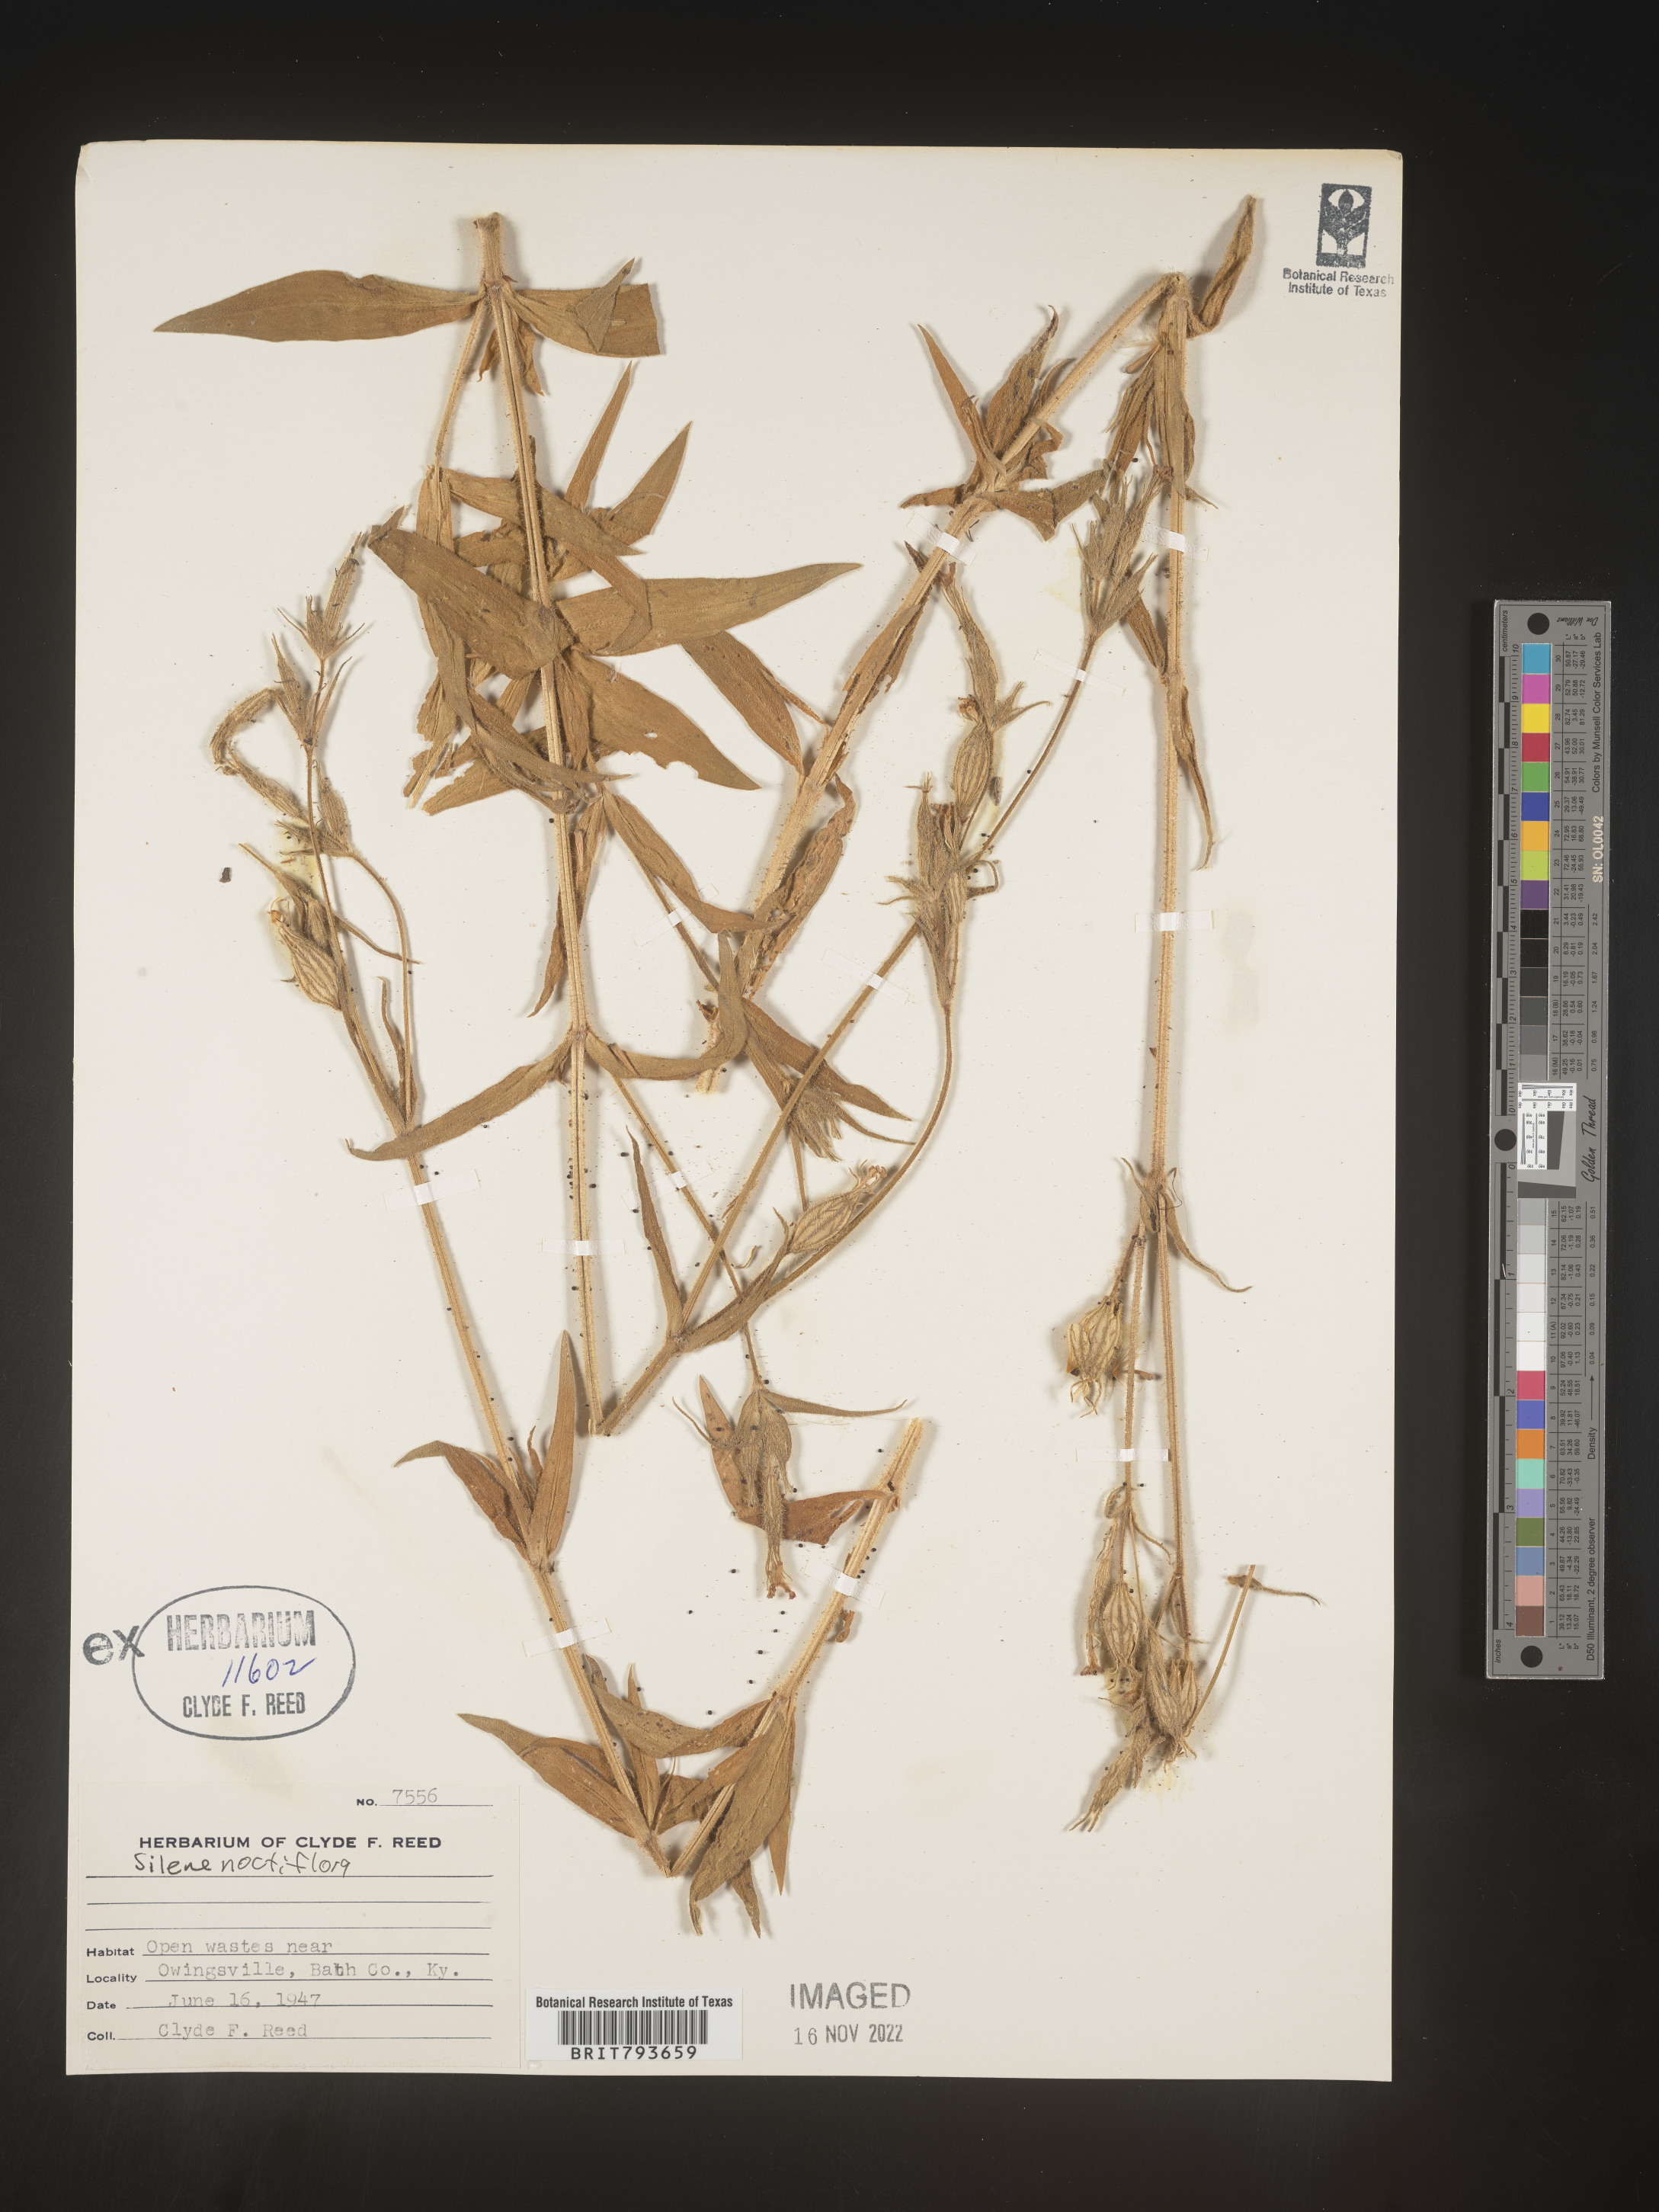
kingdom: Plantae
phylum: Tracheophyta
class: Magnoliopsida
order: Caryophyllales
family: Caryophyllaceae
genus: Silene
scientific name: Silene noctiflora
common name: Night-flowering catchfly
